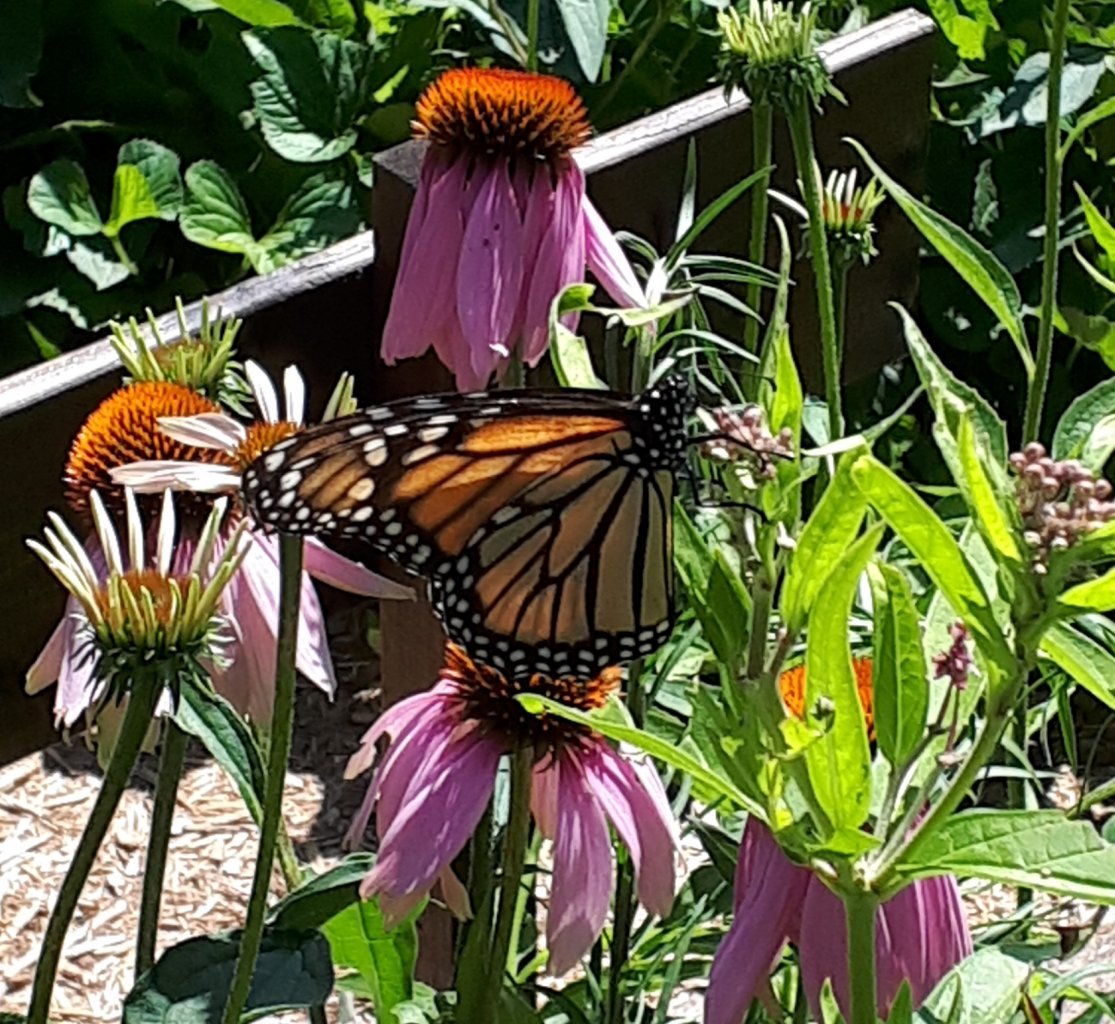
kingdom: Animalia
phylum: Arthropoda
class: Insecta
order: Lepidoptera
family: Nymphalidae
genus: Danaus
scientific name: Danaus plexippus
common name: Monarch
